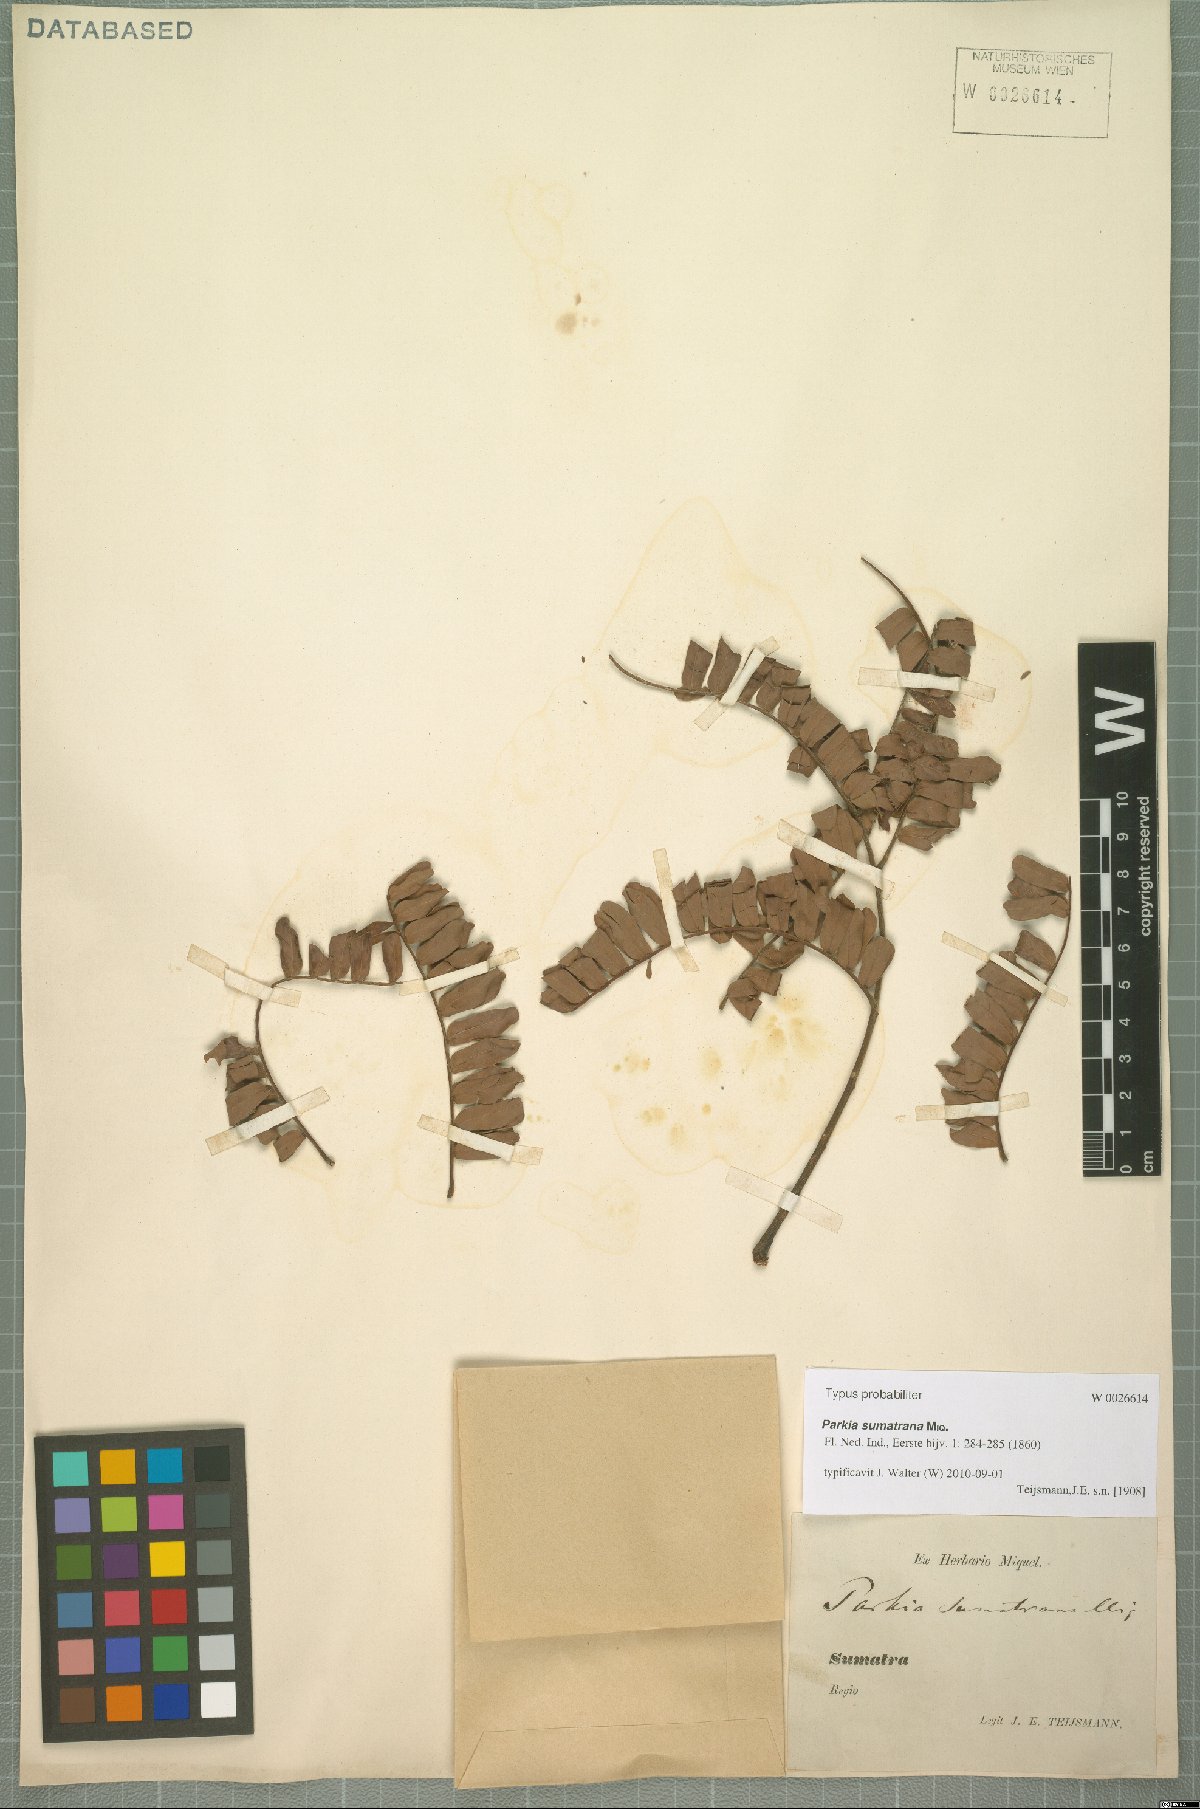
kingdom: Plantae
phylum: Tracheophyta
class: Magnoliopsida
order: Fabales
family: Fabaceae
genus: Parkia
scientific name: Parkia sumatrana
